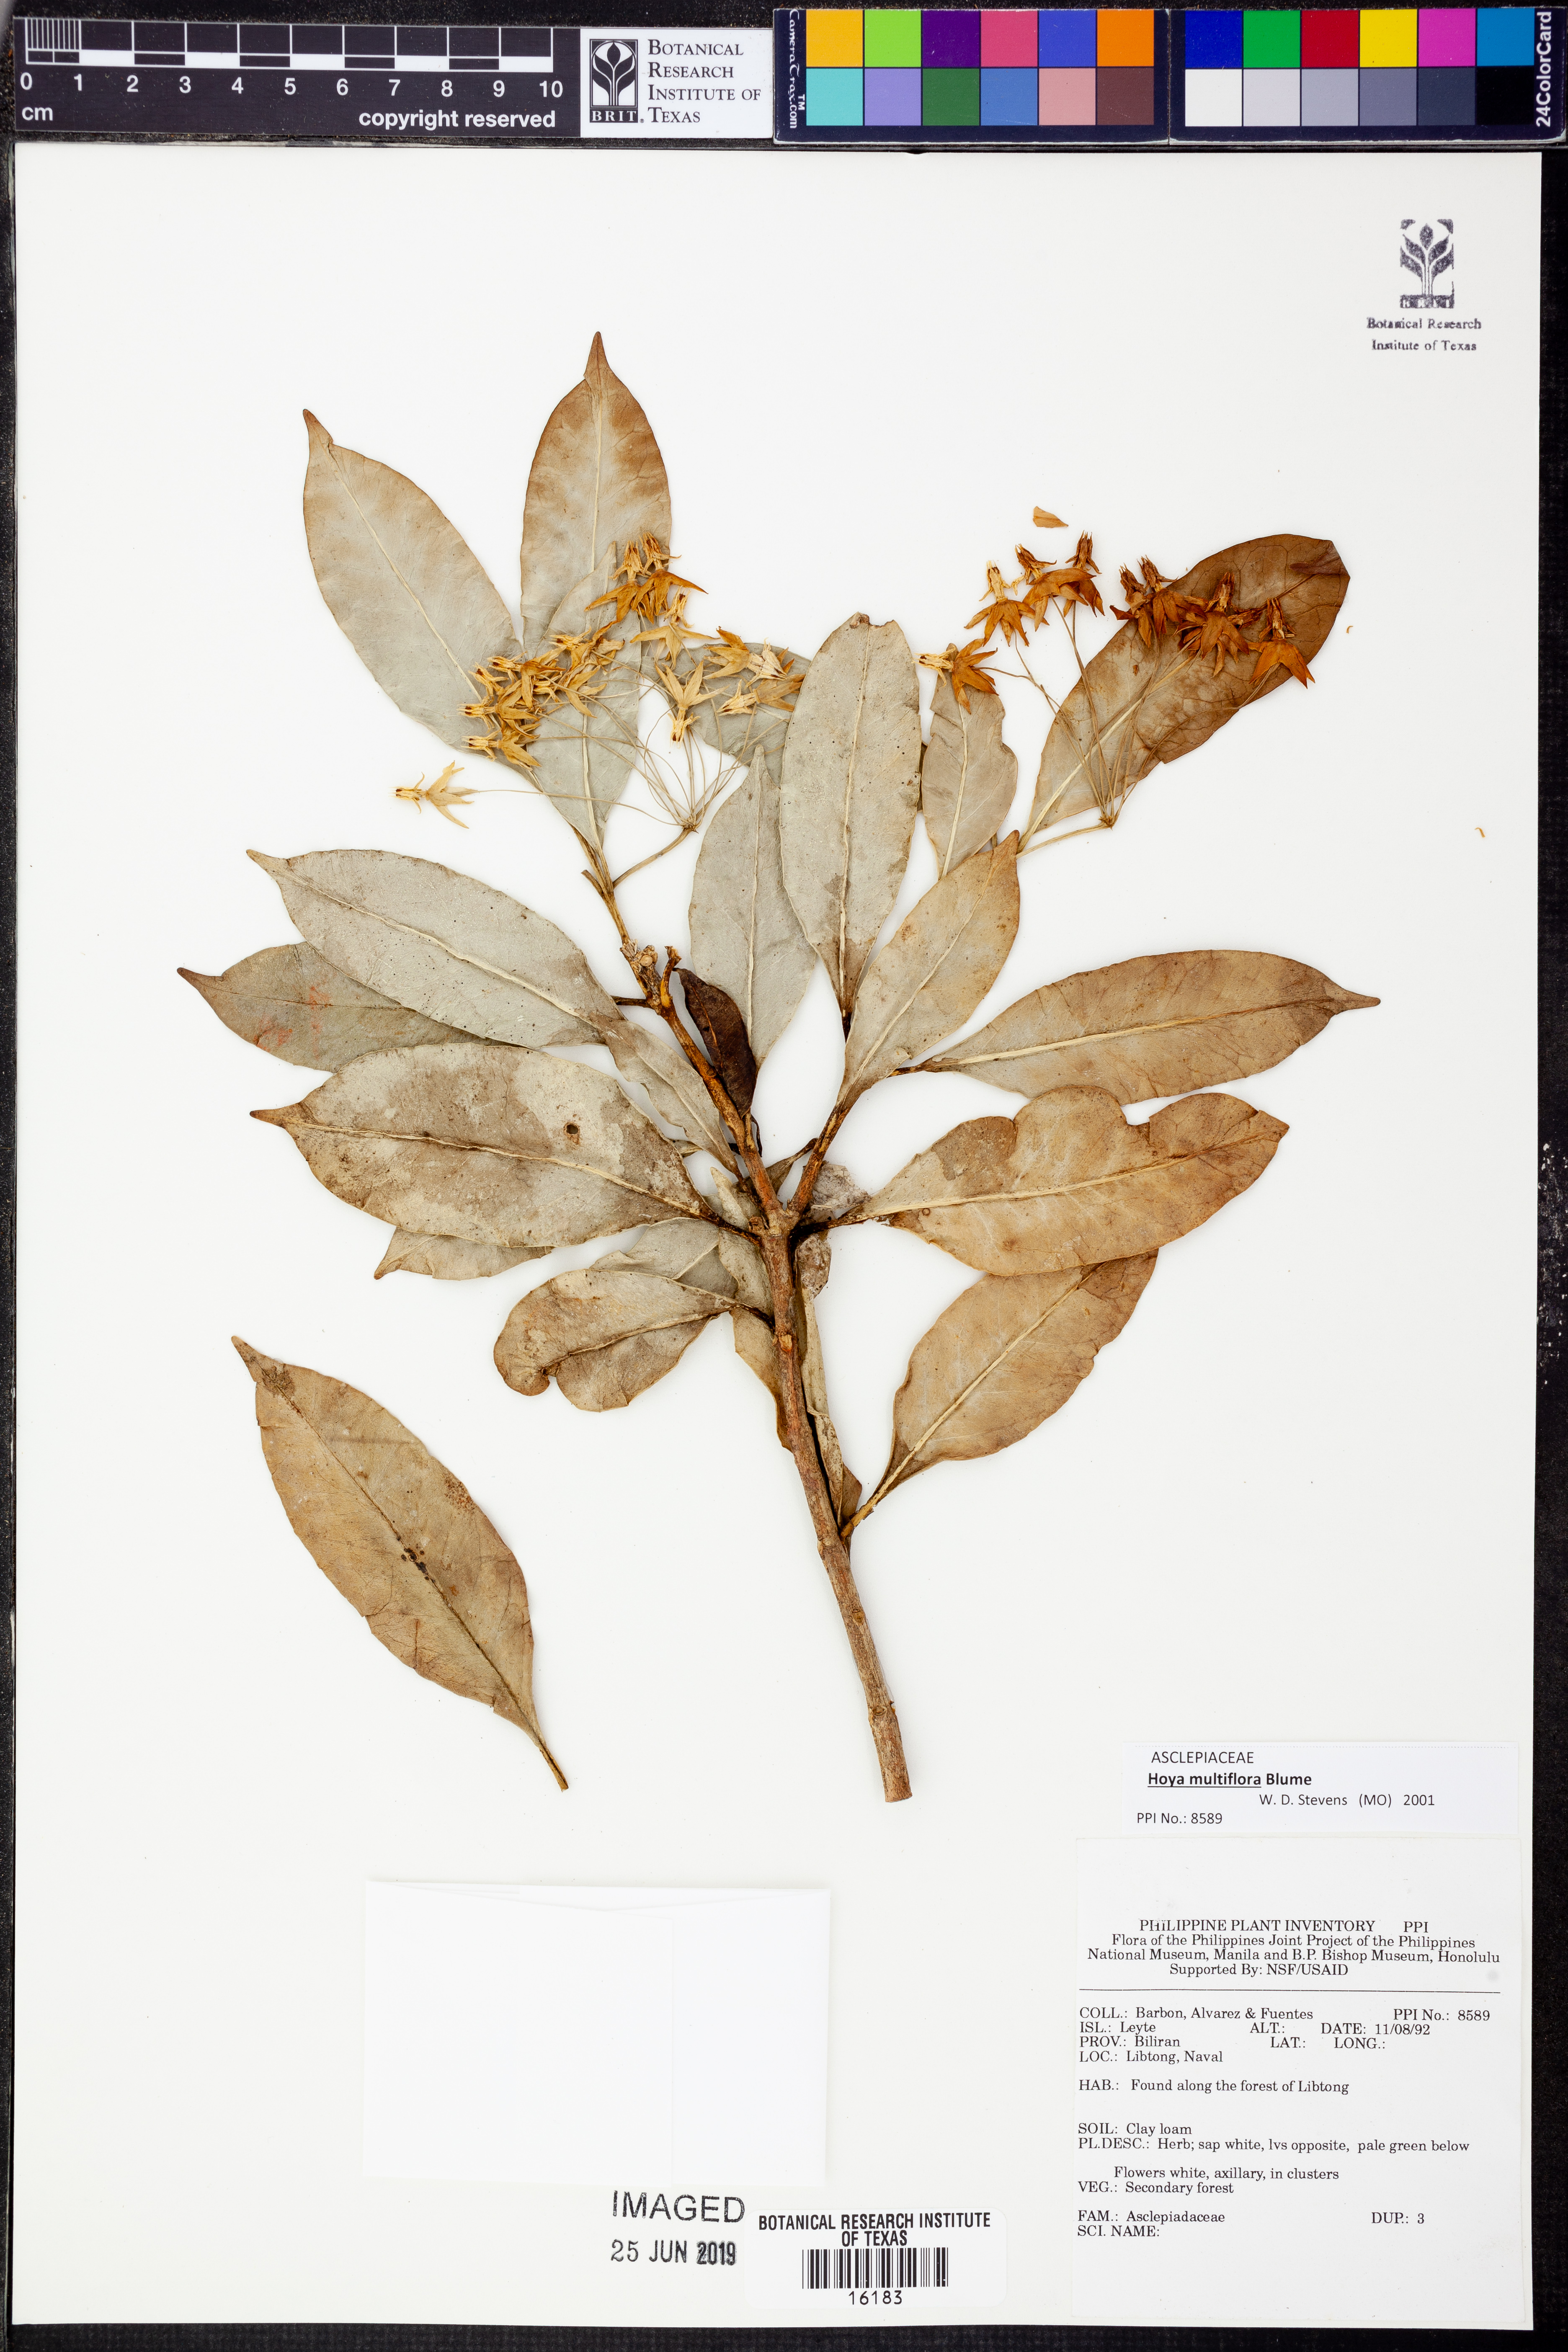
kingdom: Plantae
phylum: Tracheophyta
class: Magnoliopsida
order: Gentianales
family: Apocynaceae
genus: Hoya
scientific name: Hoya multiflora
